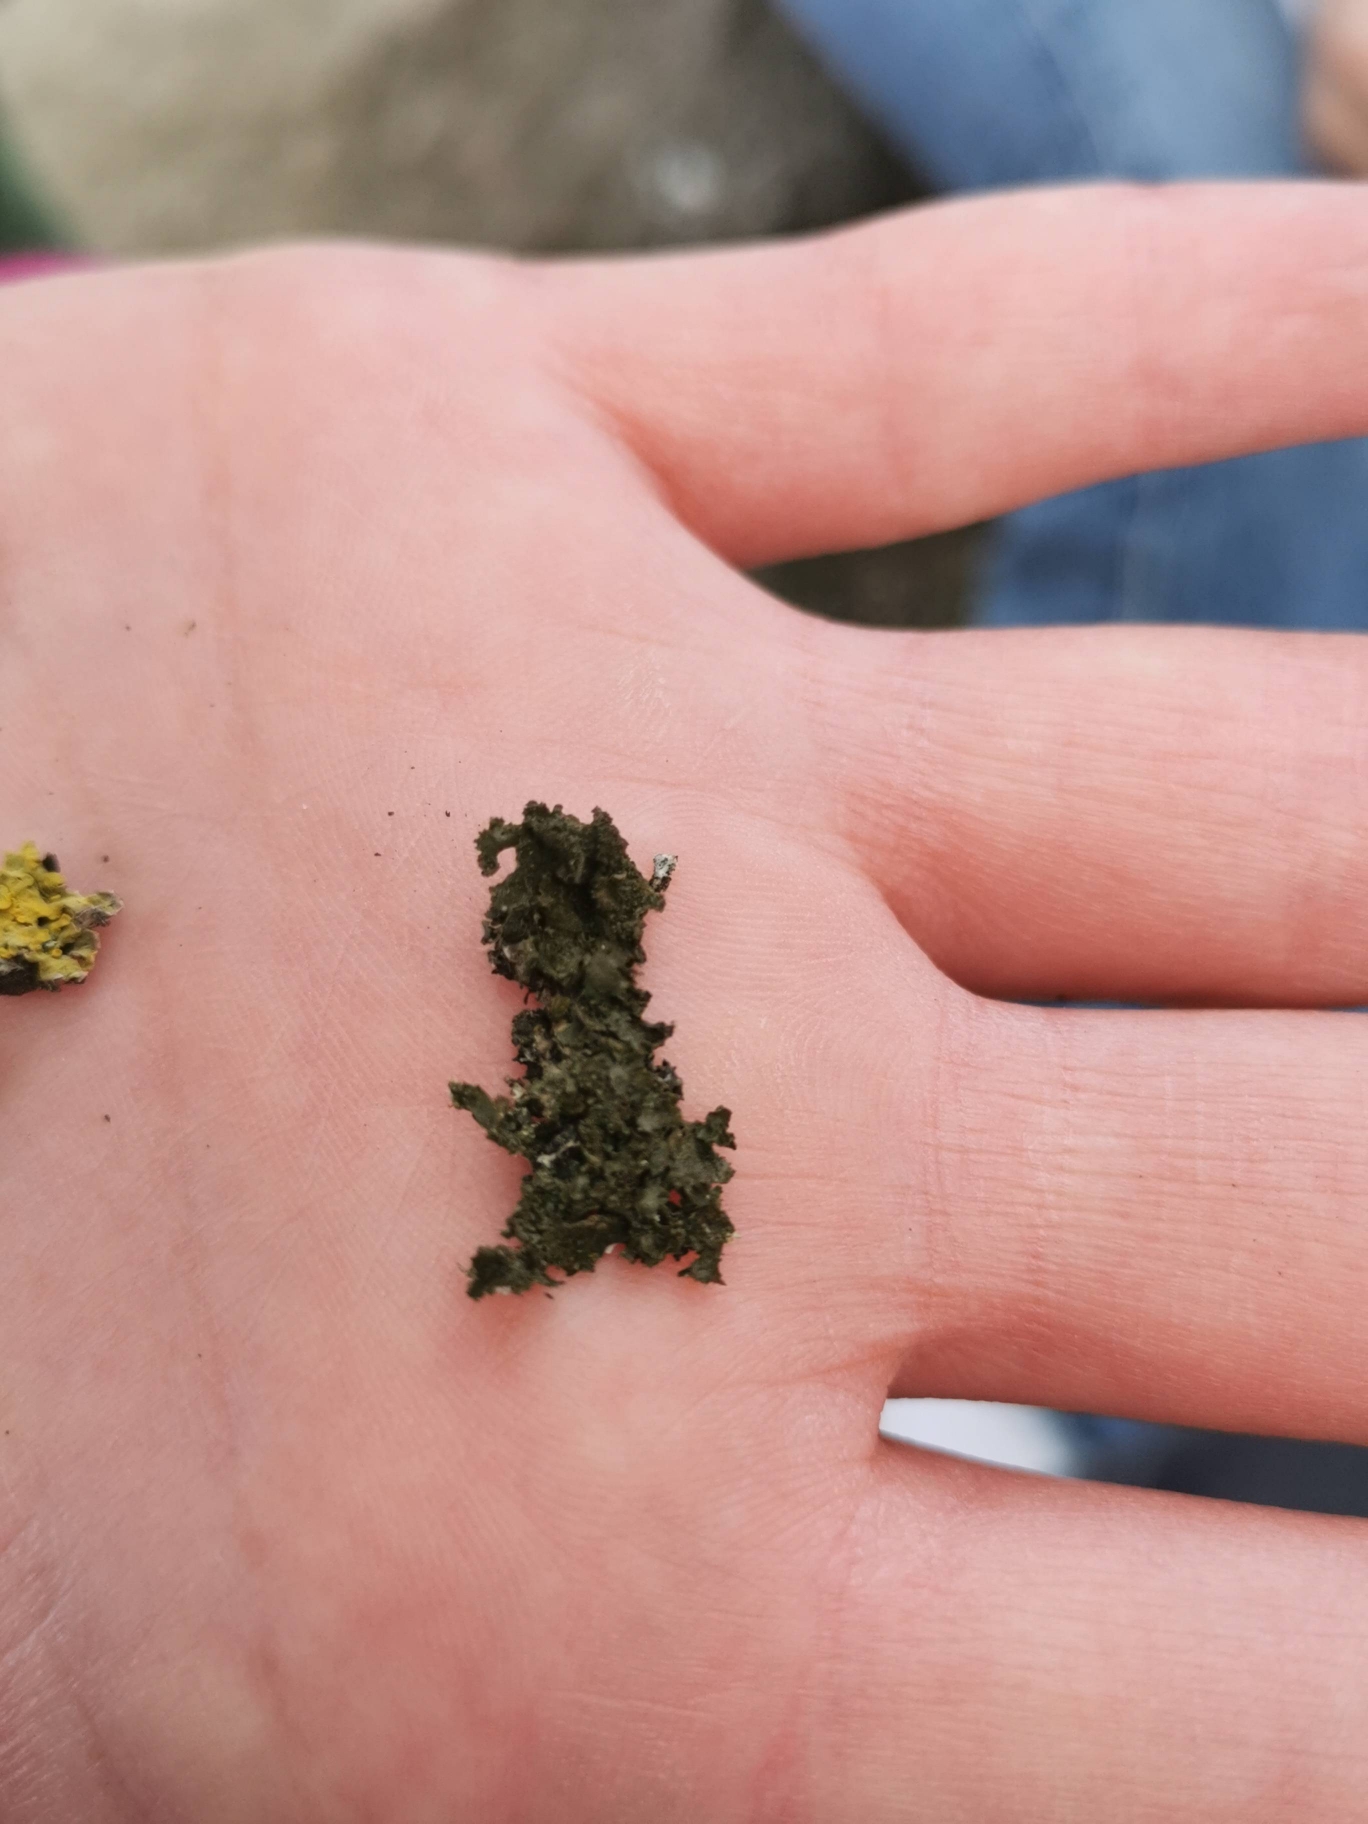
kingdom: Fungi
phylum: Ascomycota
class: Lecanoromycetes
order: Teloschistales
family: Teloschistaceae
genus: Xanthoria
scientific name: Xanthoria parietina
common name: Almindelig væggelav
